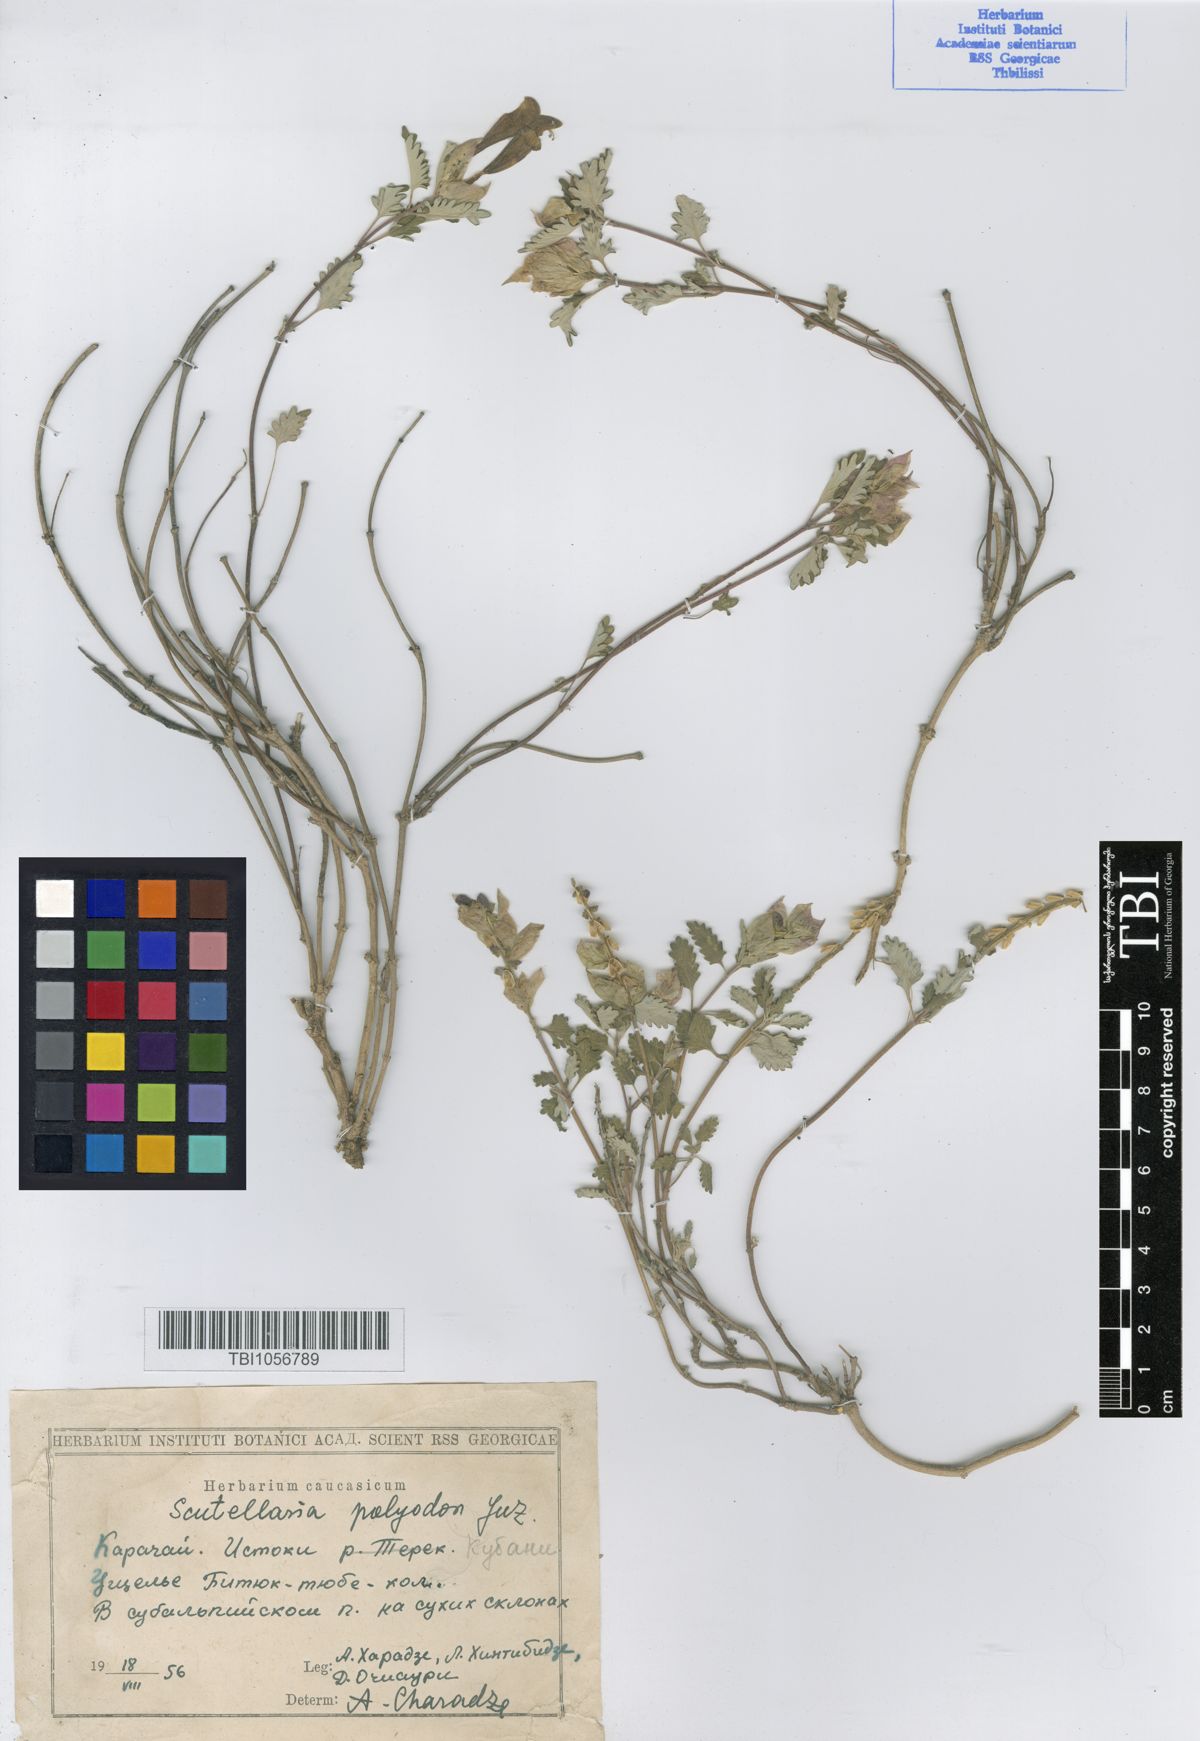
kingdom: Plantae
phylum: Tracheophyta
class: Magnoliopsida
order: Lamiales
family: Lamiaceae
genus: Scutellaria
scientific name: Scutellaria caucasica
